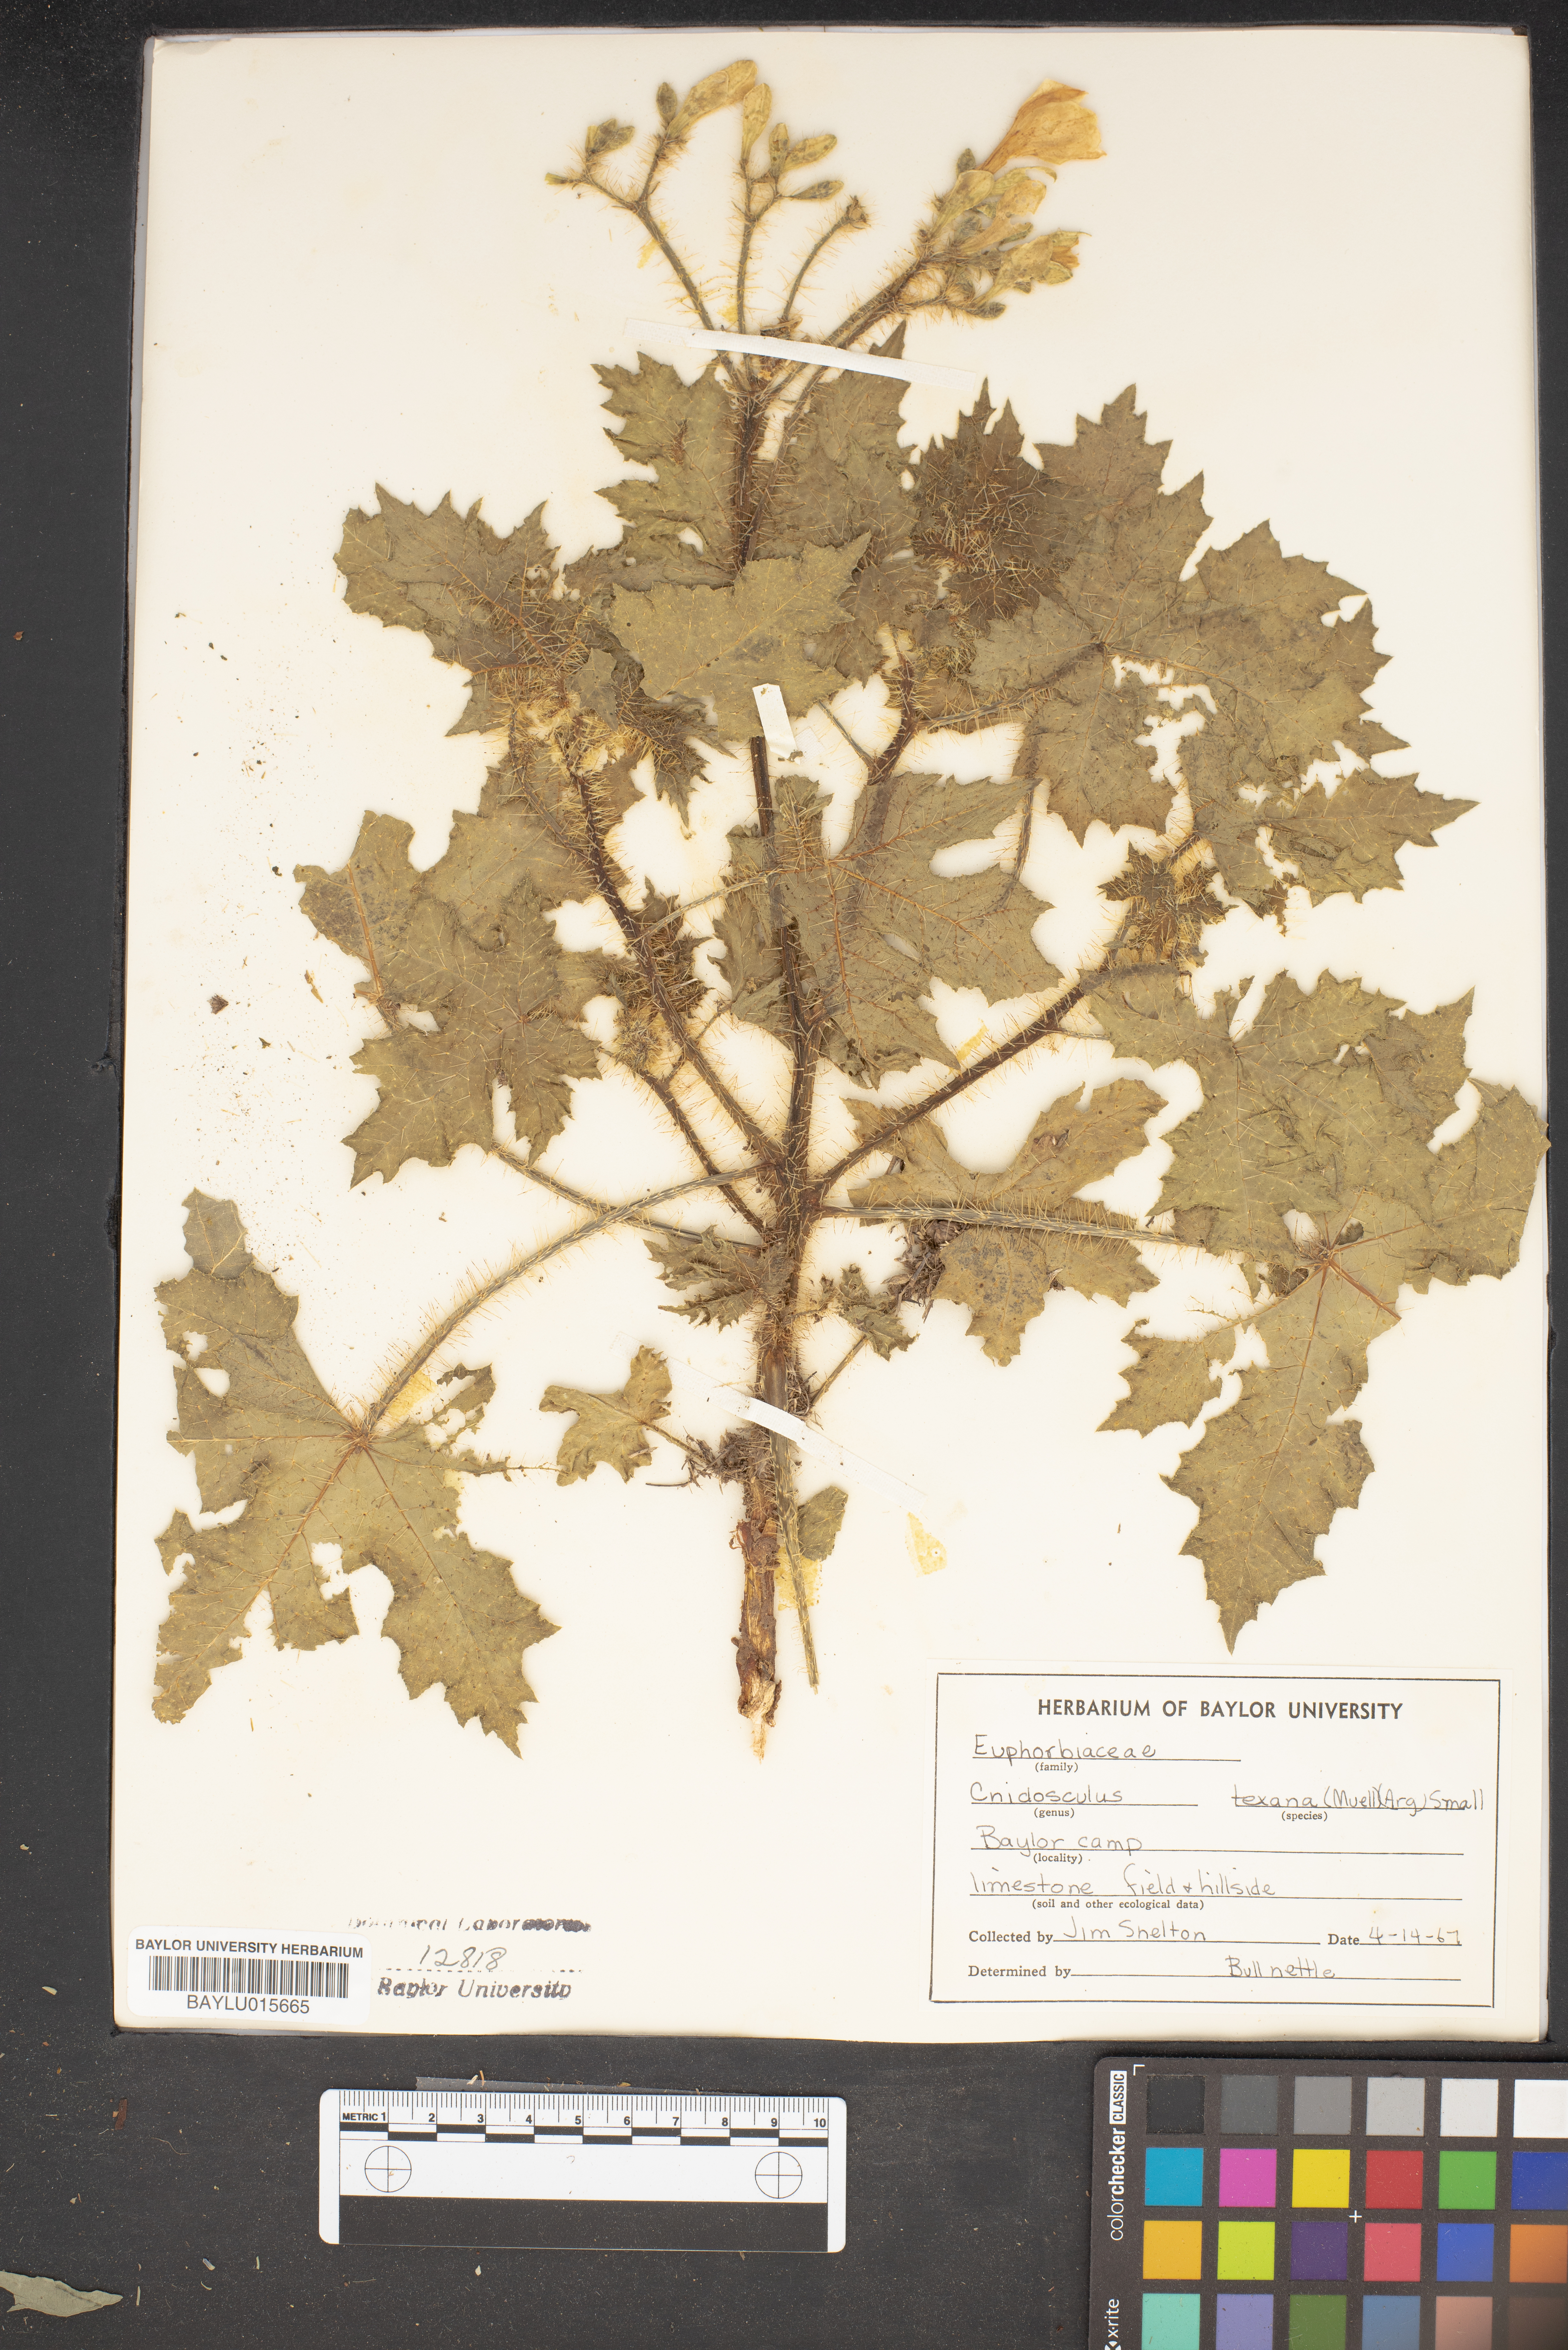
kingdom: Plantae
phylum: Tracheophyta
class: Magnoliopsida
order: Malpighiales
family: Euphorbiaceae
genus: Cnidoscolus
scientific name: Cnidoscolus texanus
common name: Texas bull-nettle
